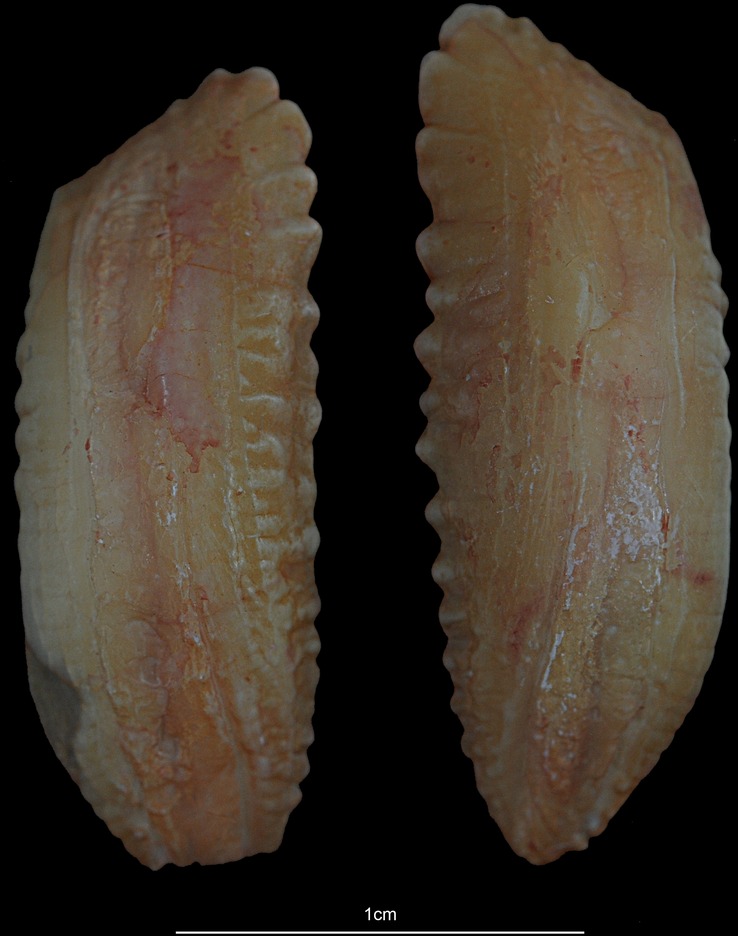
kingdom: Animalia
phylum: Chordata
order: Gadiformes
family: Gadidae
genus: Melanogrammus
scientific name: Melanogrammus aeglefinus
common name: Haddock
